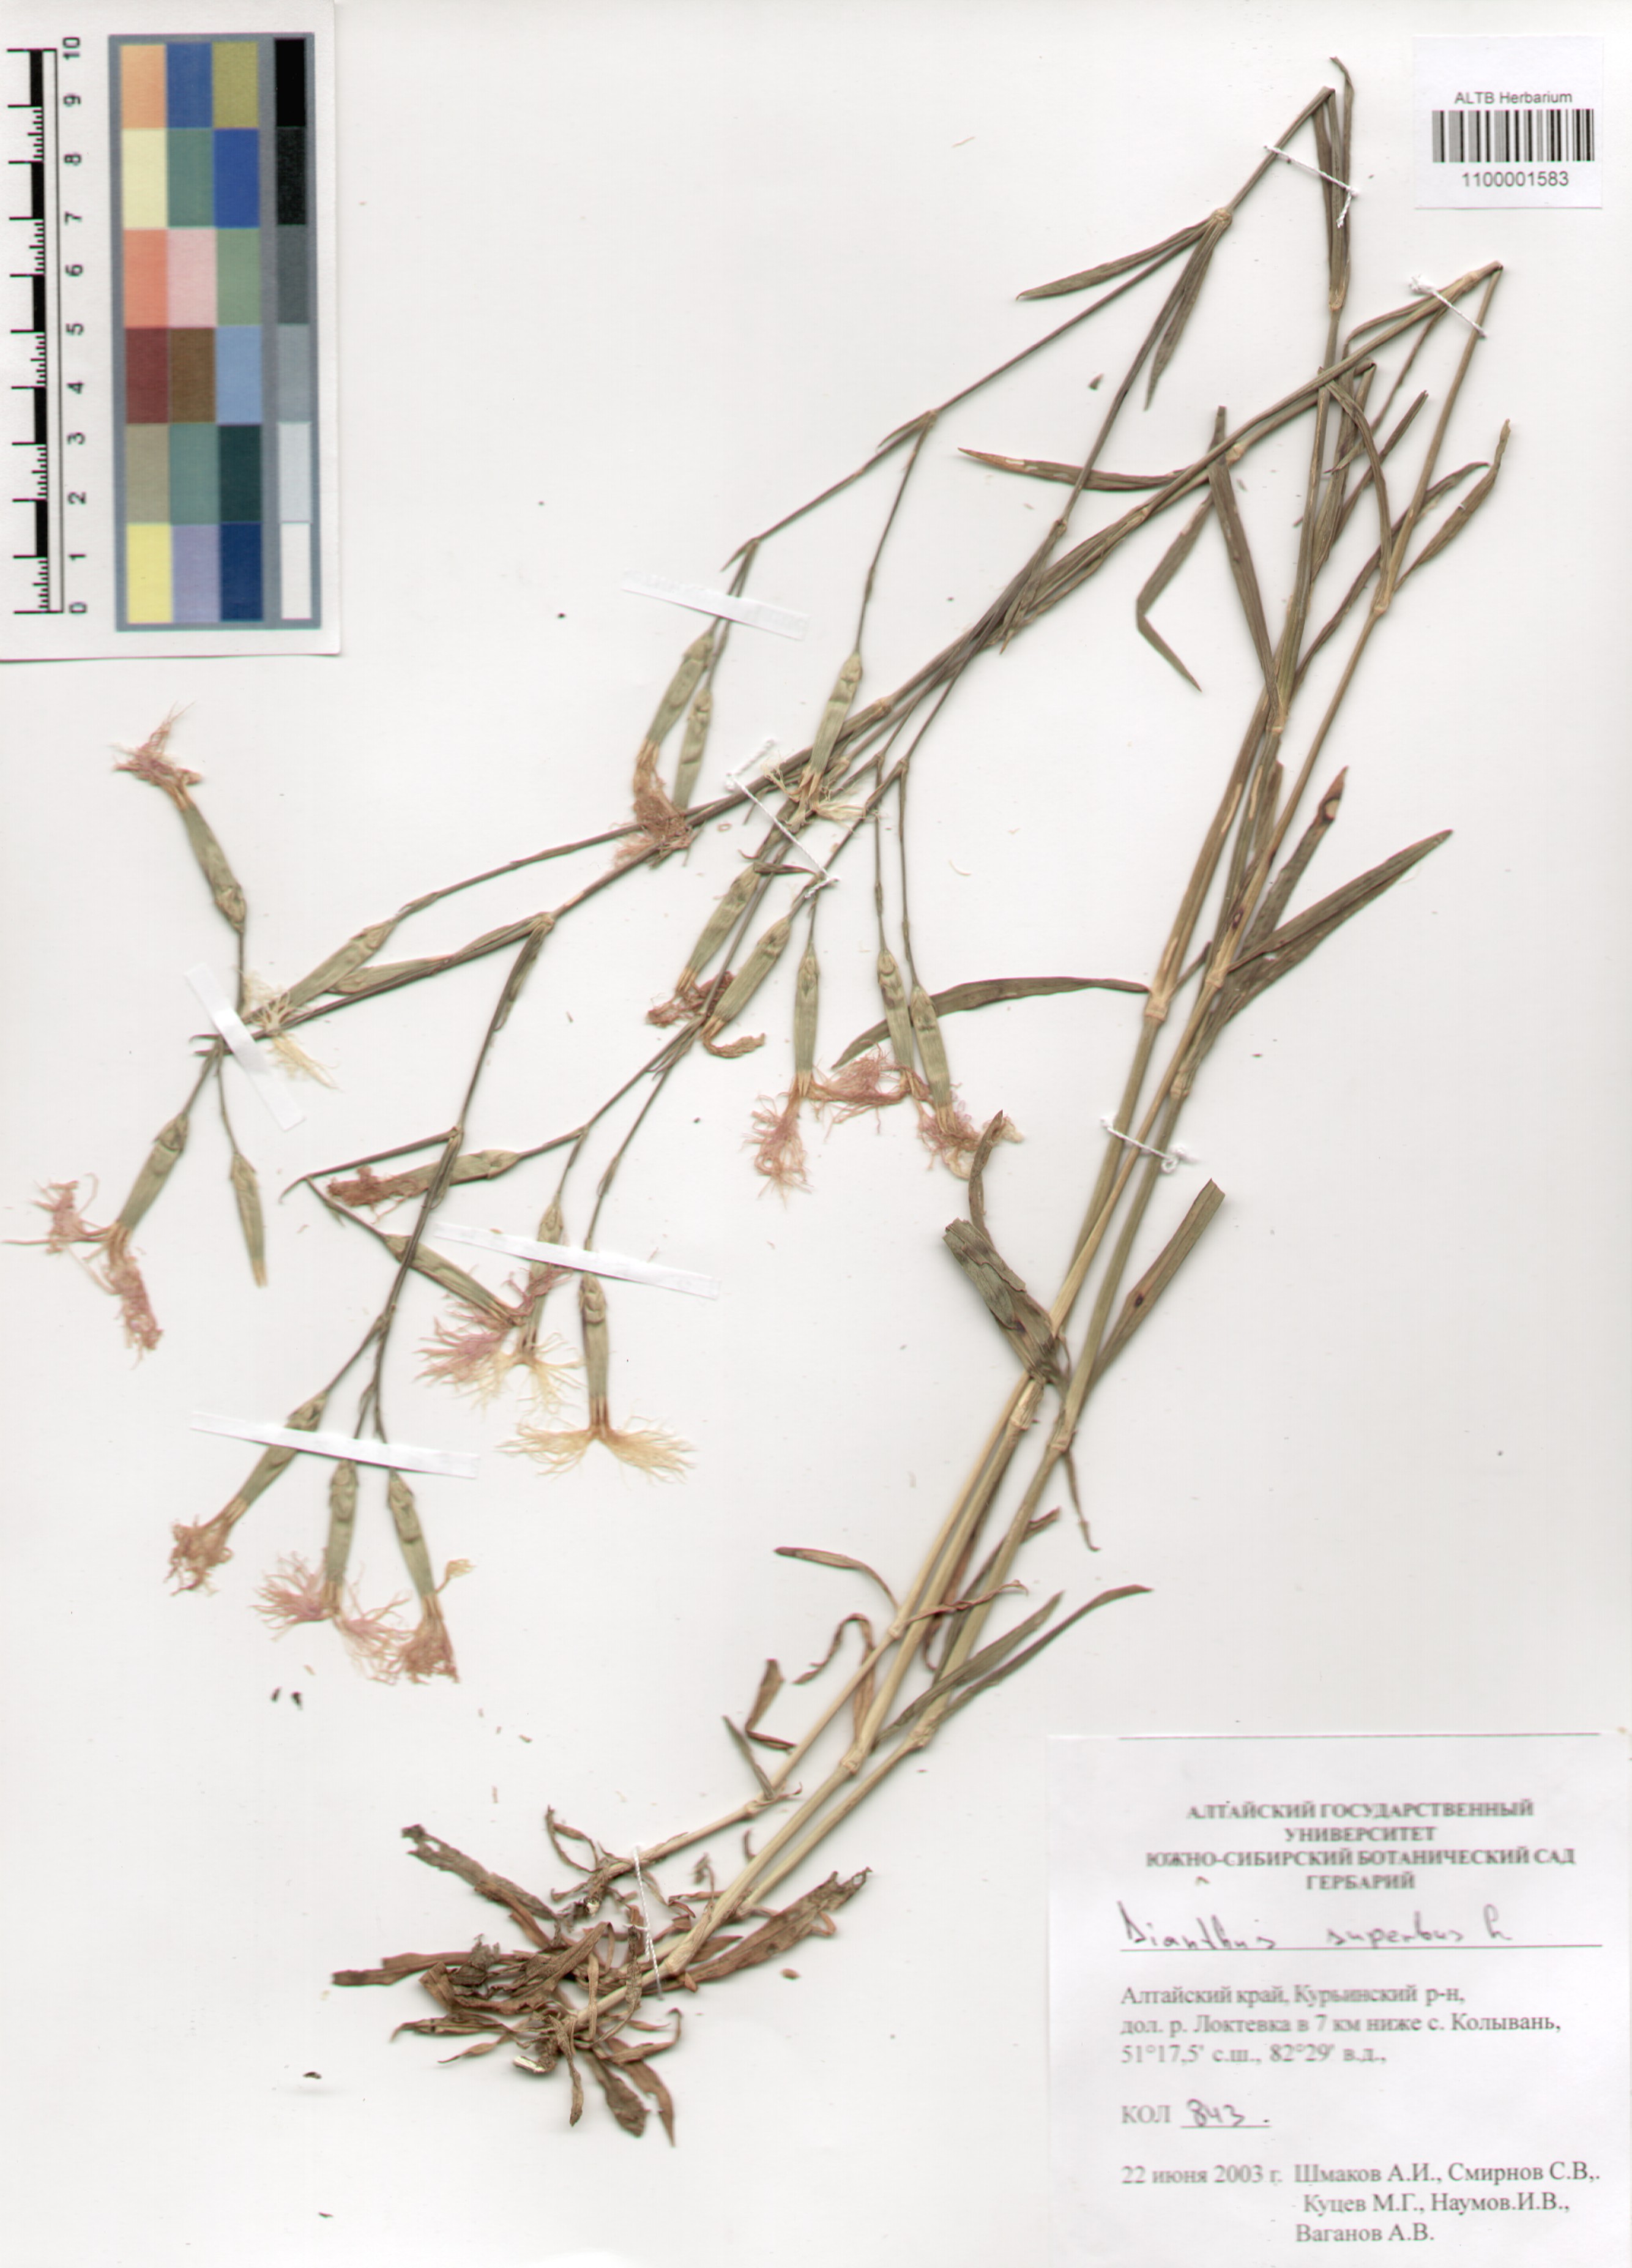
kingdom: Plantae
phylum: Tracheophyta
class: Magnoliopsida
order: Caryophyllales
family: Caryophyllaceae
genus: Dianthus
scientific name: Dianthus superbus
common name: Fringed pink
